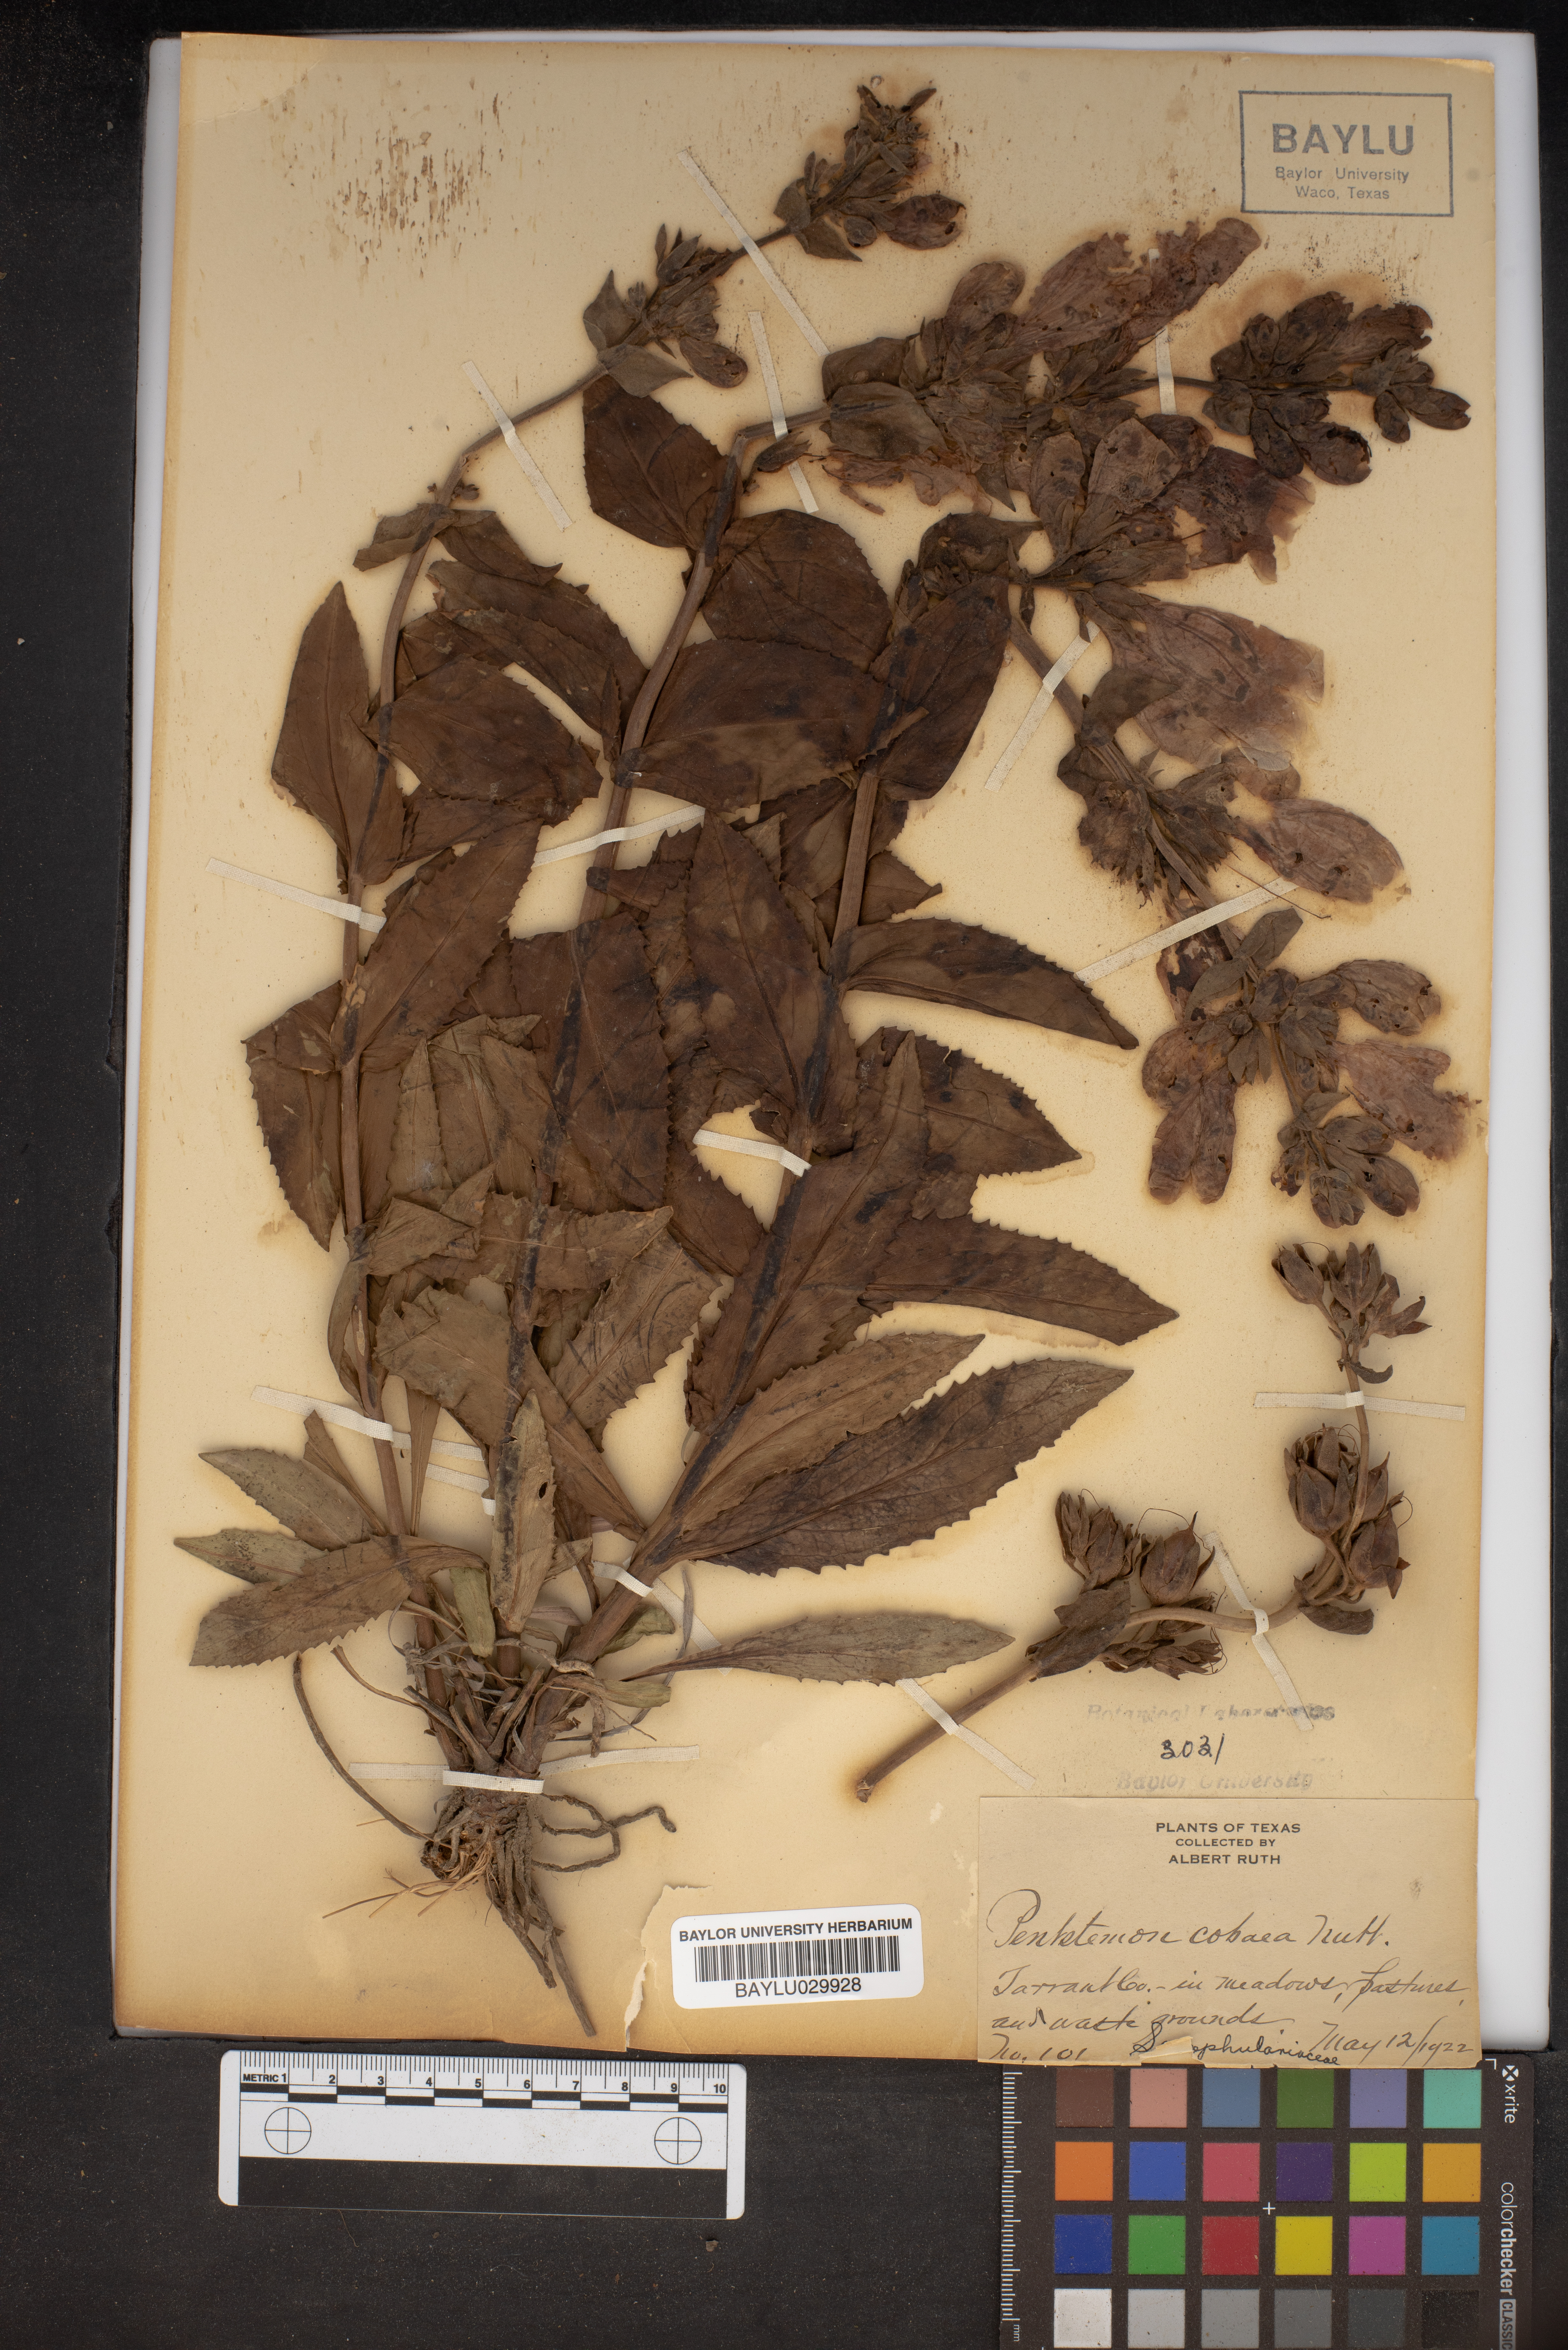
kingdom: Plantae
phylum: Tracheophyta
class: Magnoliopsida
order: Lamiales
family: Plantaginaceae
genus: Penstemon
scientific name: Penstemon cobaea
